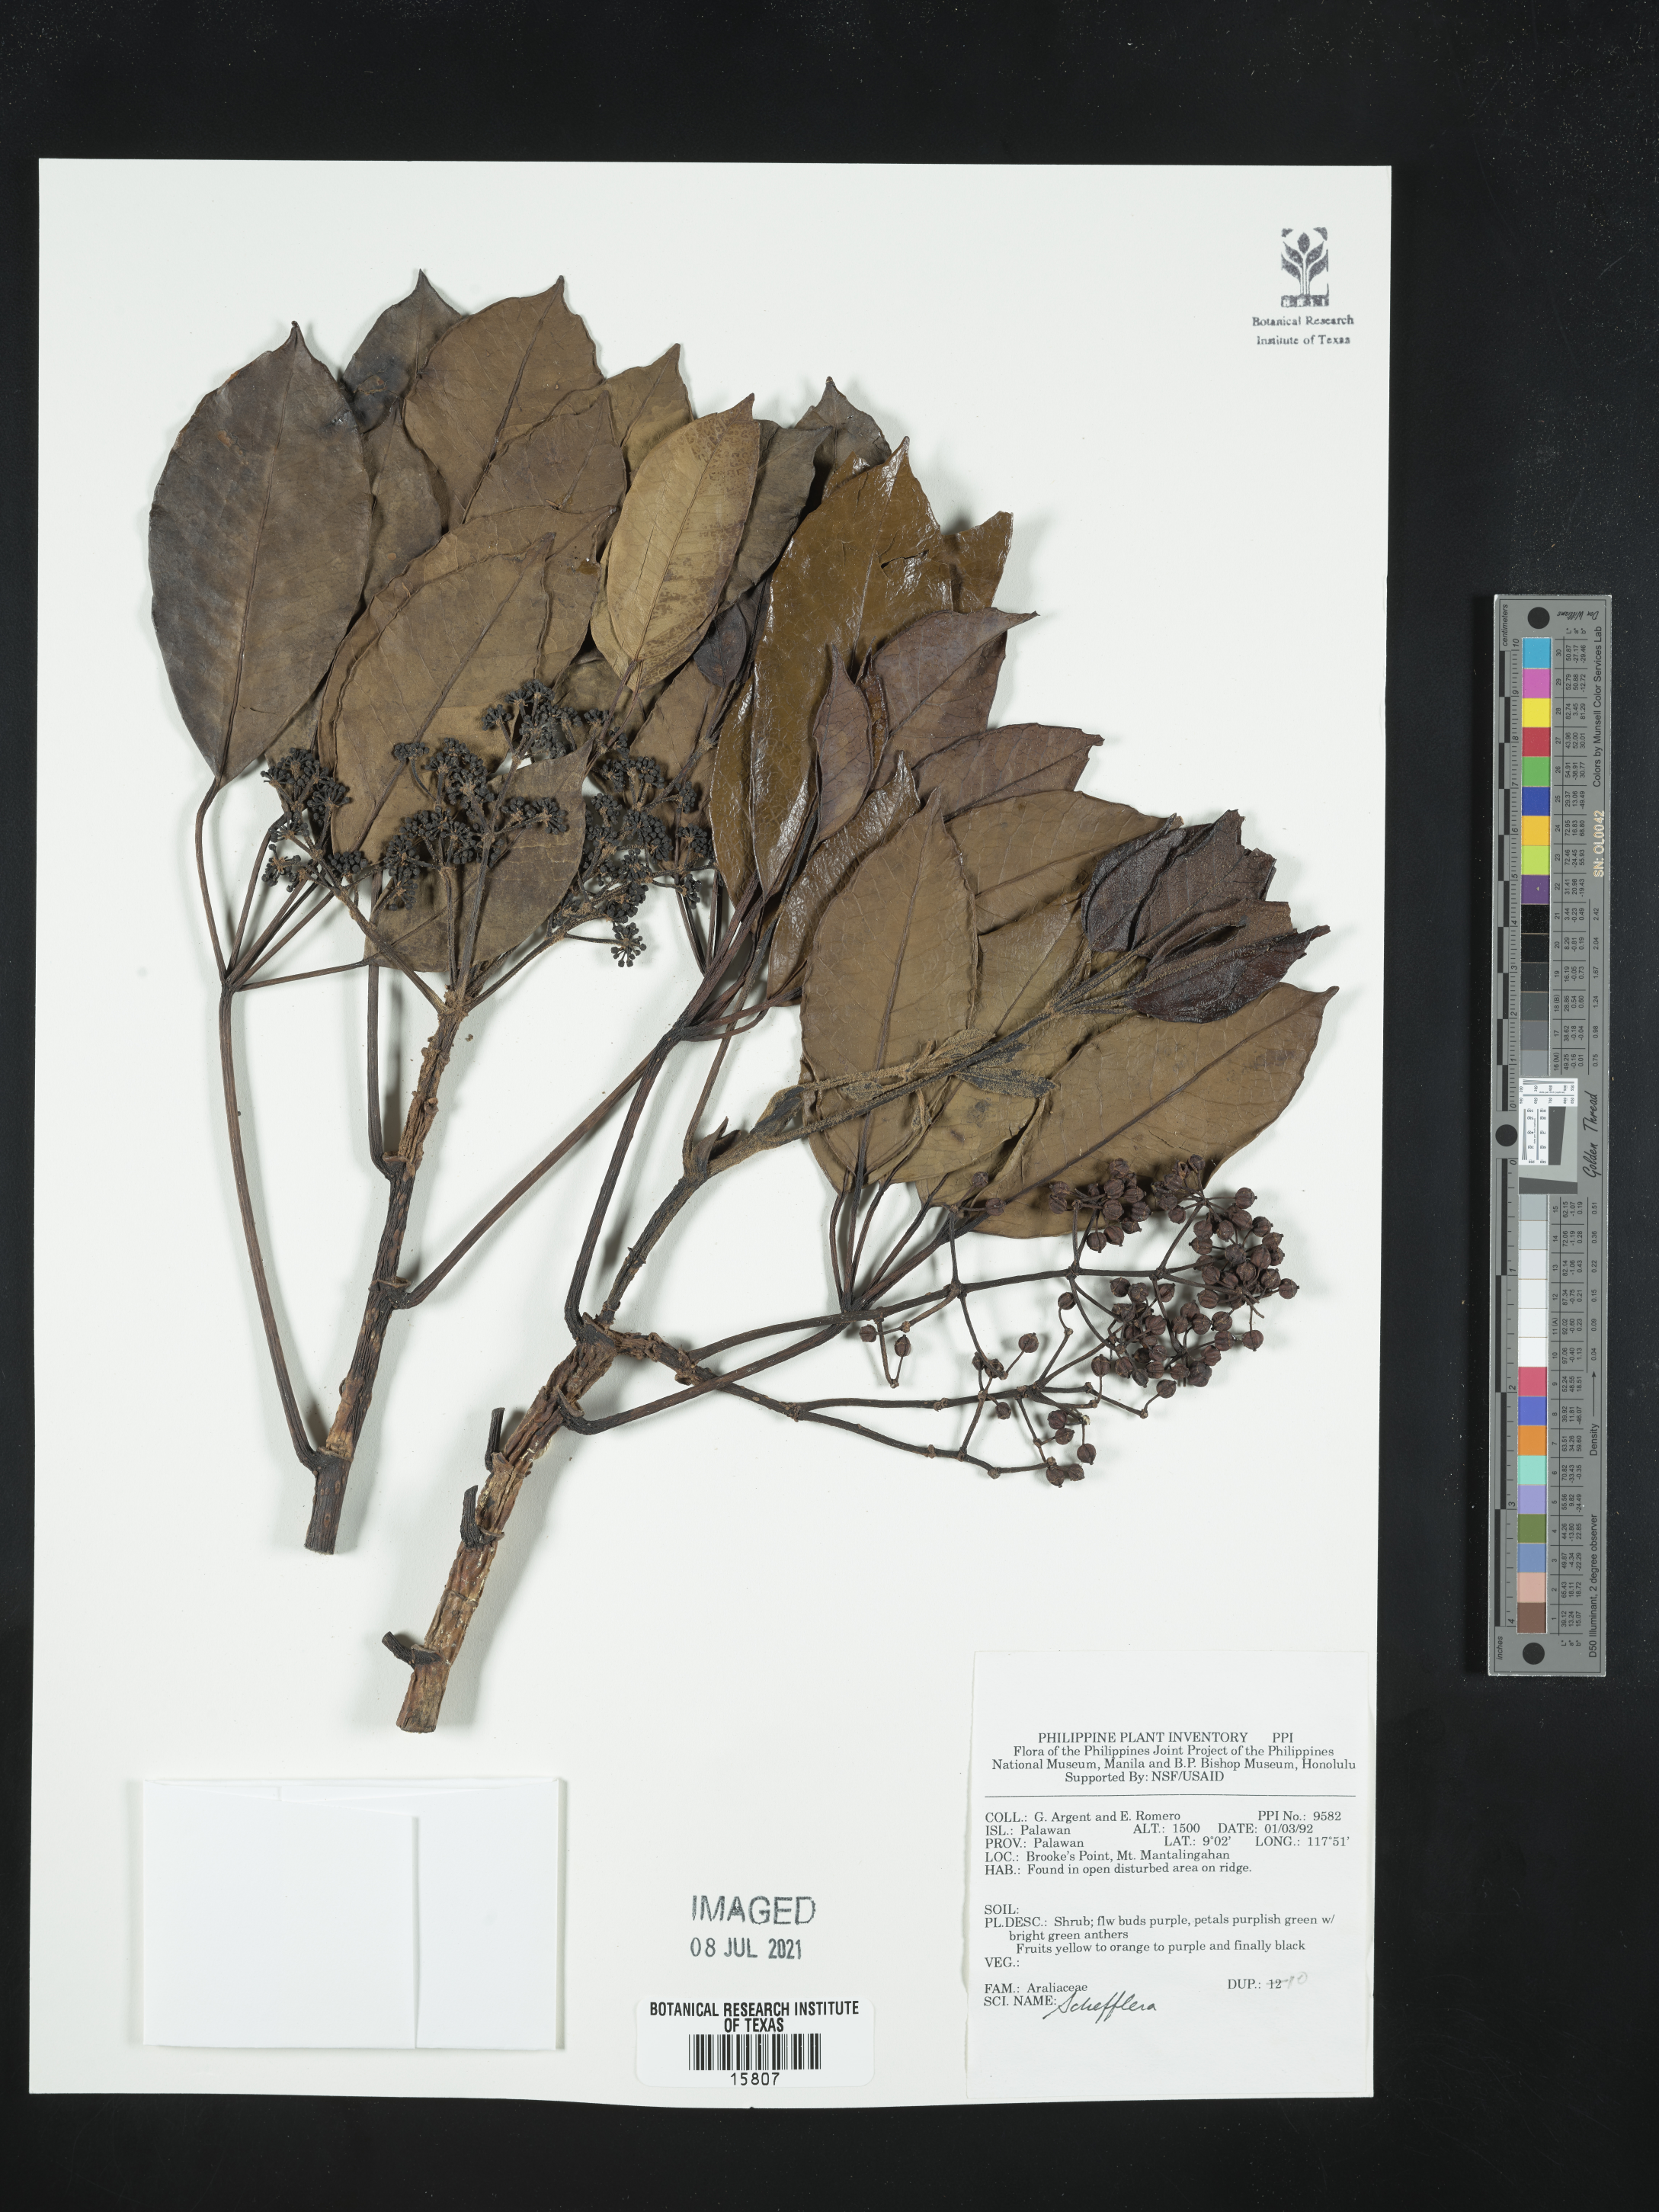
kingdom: Plantae
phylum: Tracheophyta
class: Magnoliopsida
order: Apiales
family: Araliaceae
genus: Schefflera
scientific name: Schefflera
